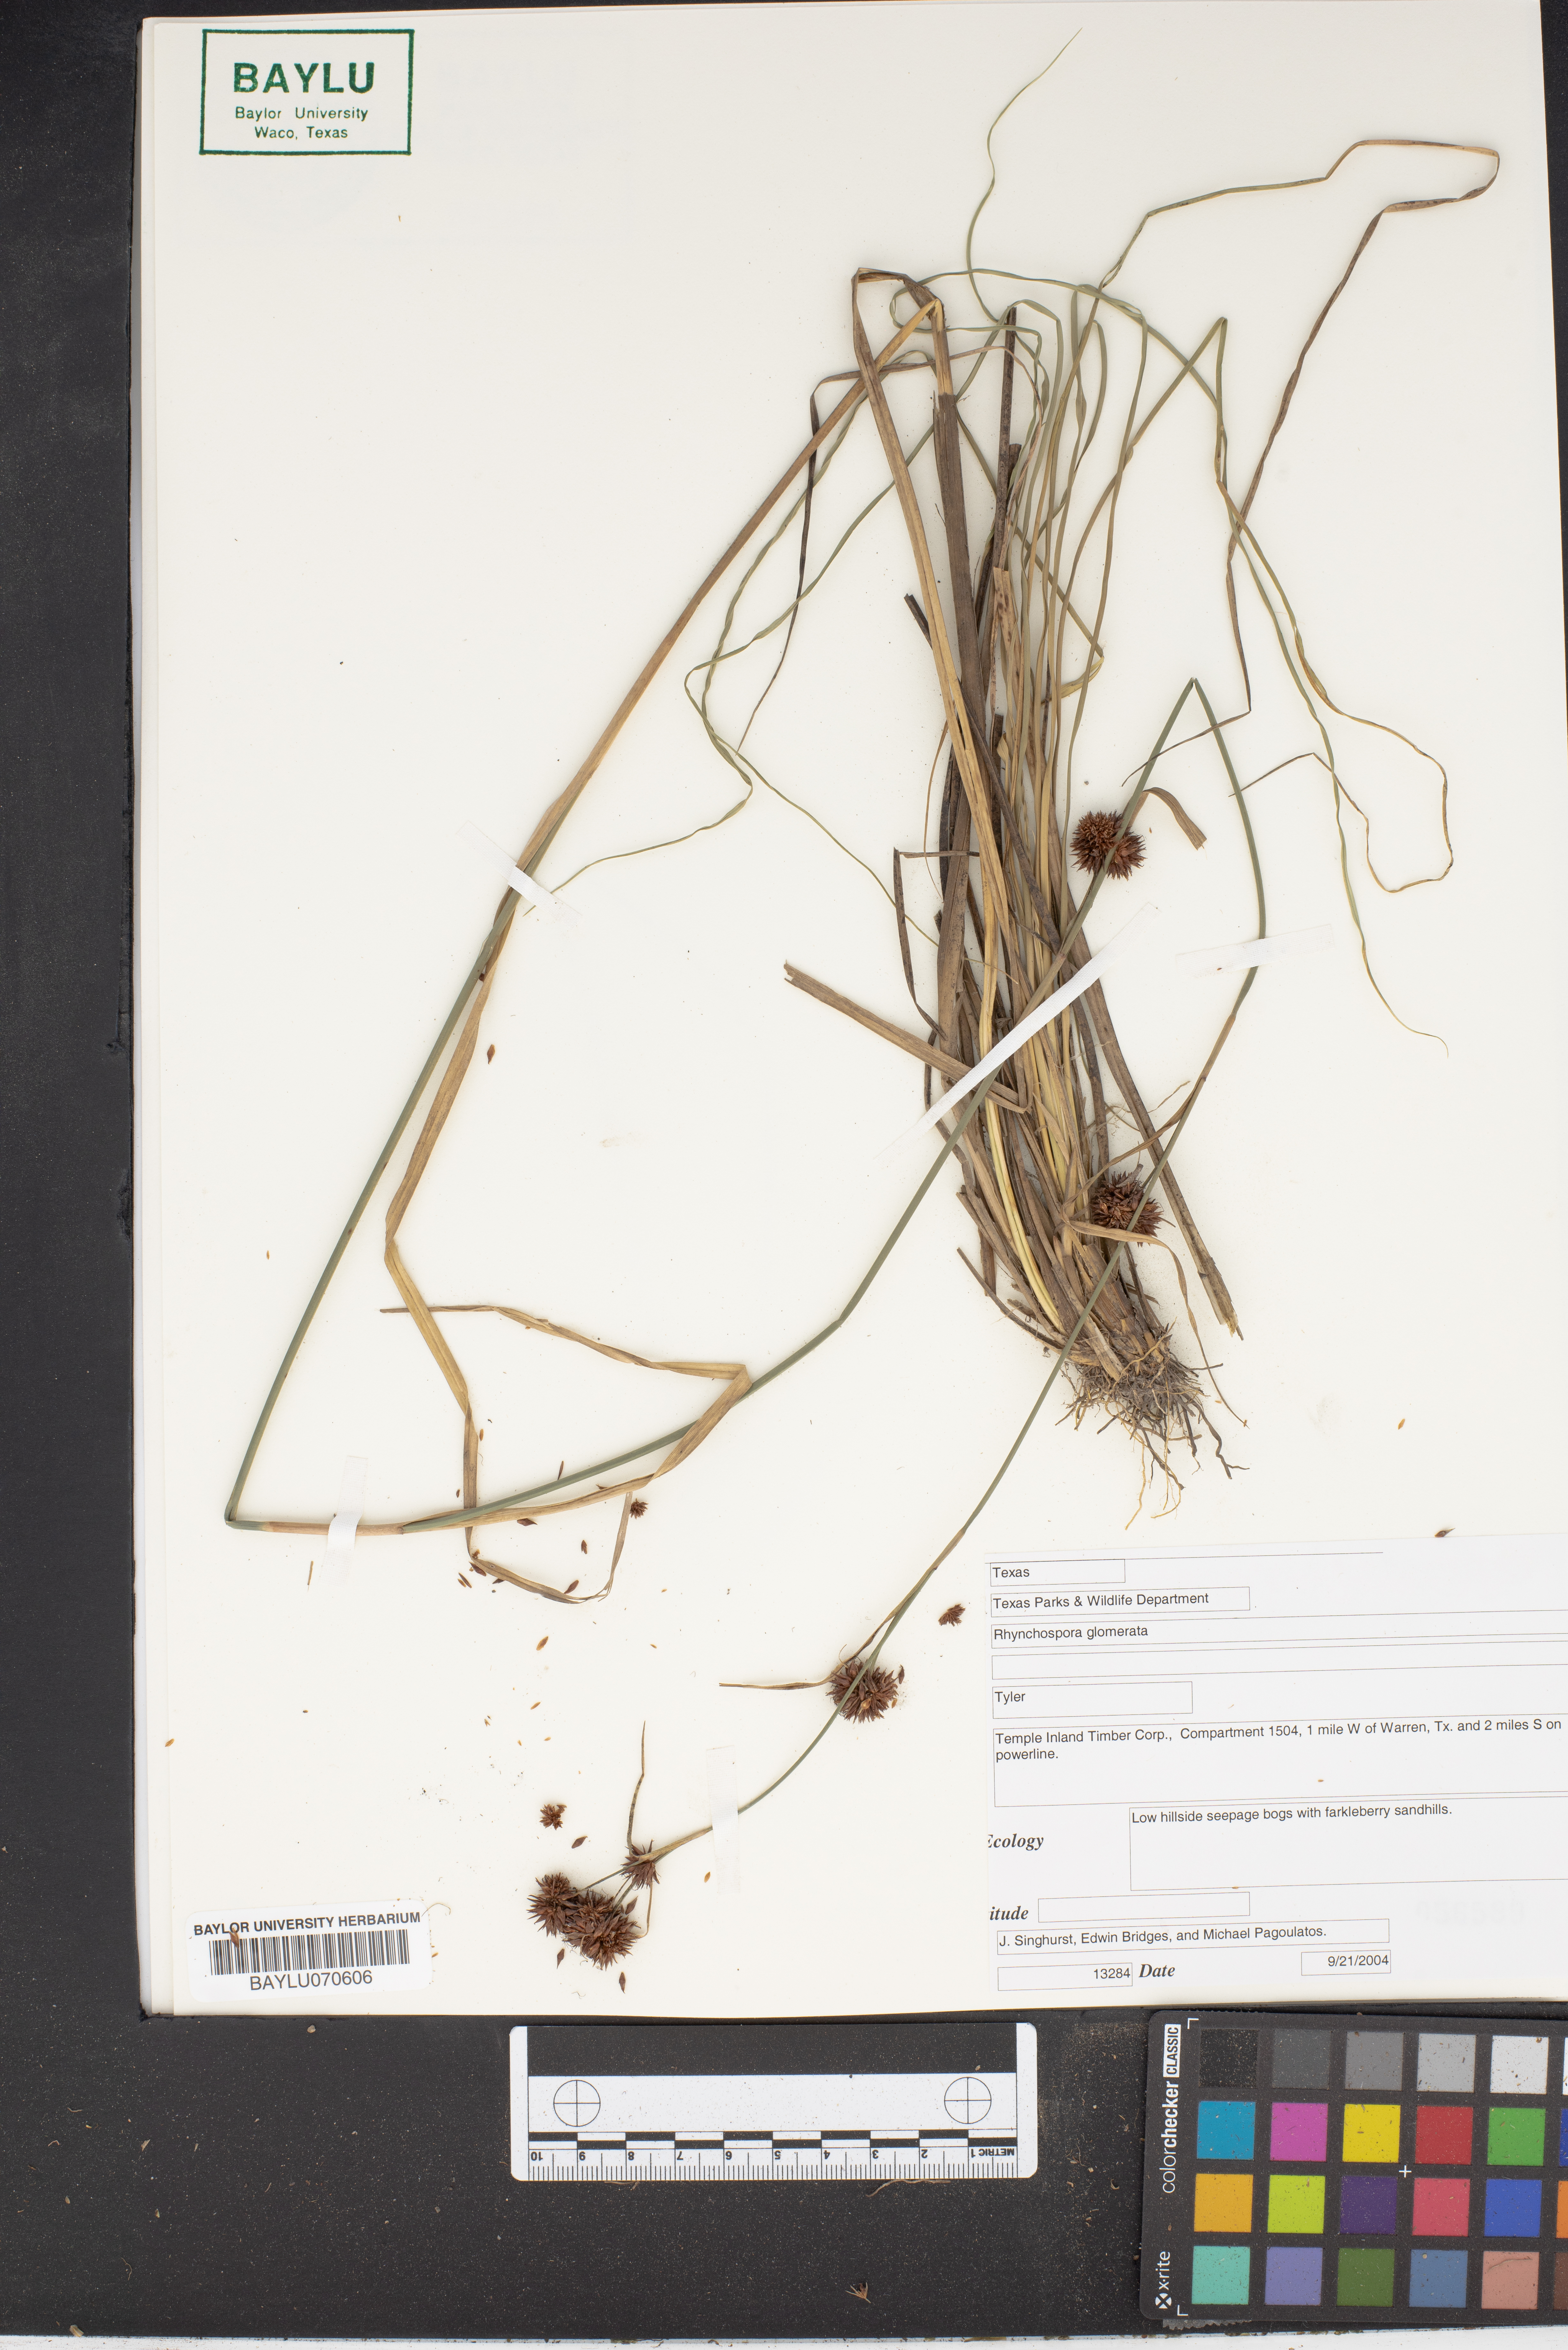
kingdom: Plantae
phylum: Tracheophyta
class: Liliopsida
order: Poales
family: Cyperaceae
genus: Rhynchospora
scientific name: Rhynchospora glomerata
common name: Cluster beak sedge
